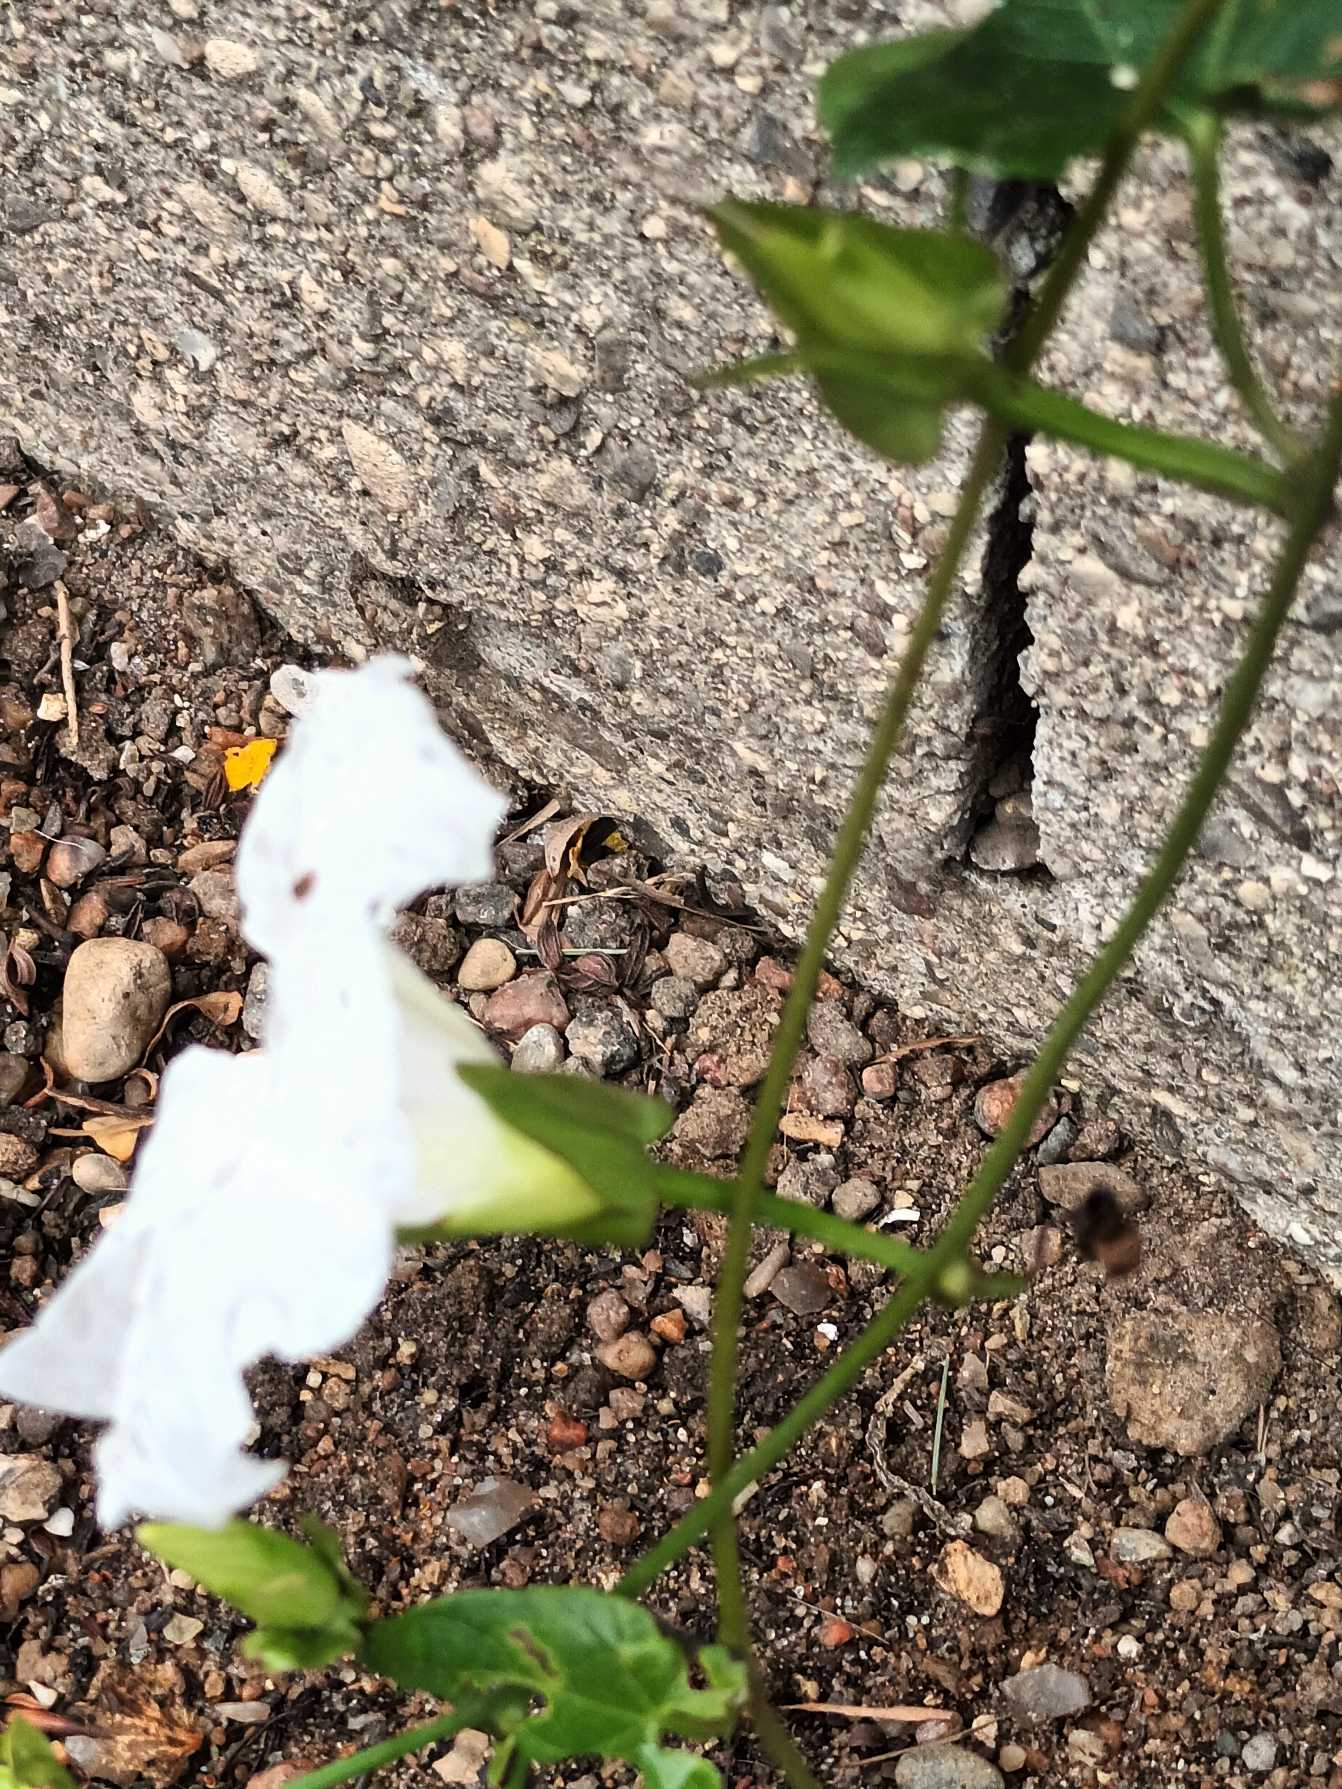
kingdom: Plantae
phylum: Tracheophyta
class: Magnoliopsida
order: Solanales
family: Convolvulaceae
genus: Calystegia
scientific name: Calystegia sepium
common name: Gærde-snerle
